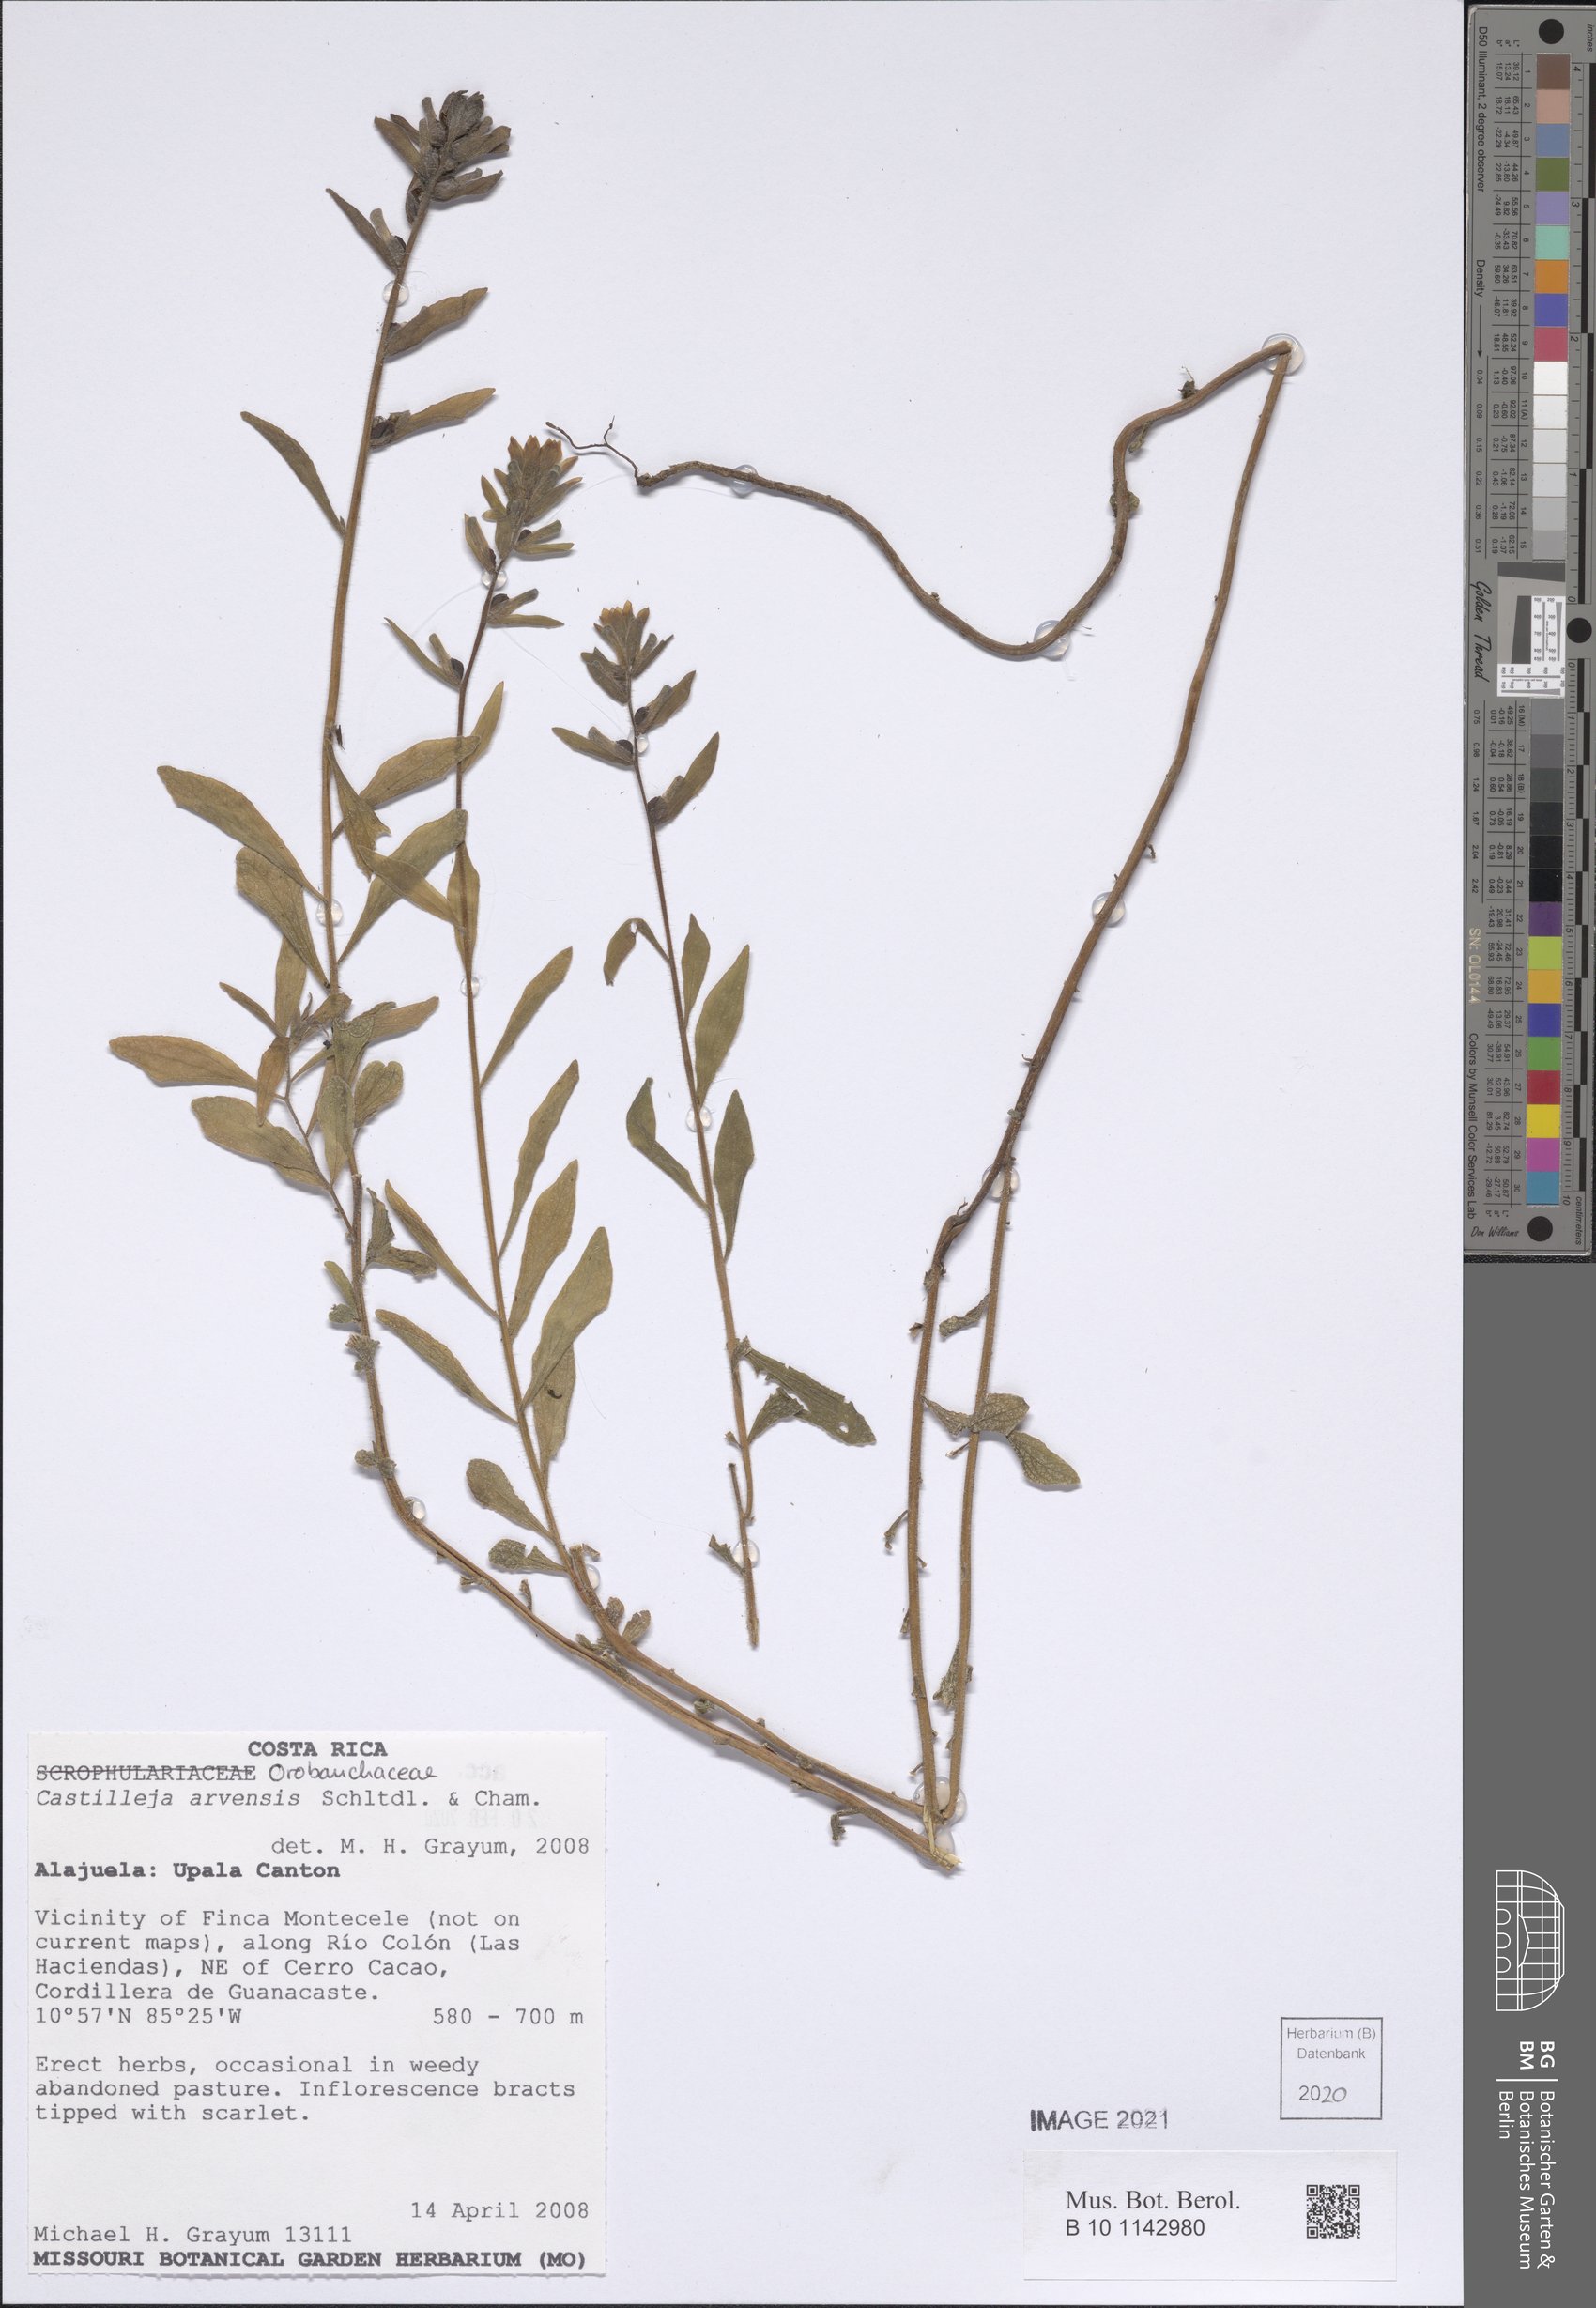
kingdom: Plantae
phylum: Tracheophyta
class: Magnoliopsida
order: Lamiales
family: Orobanchaceae
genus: Castilleja
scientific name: Castilleja arvensis
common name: Indian paintbrush
